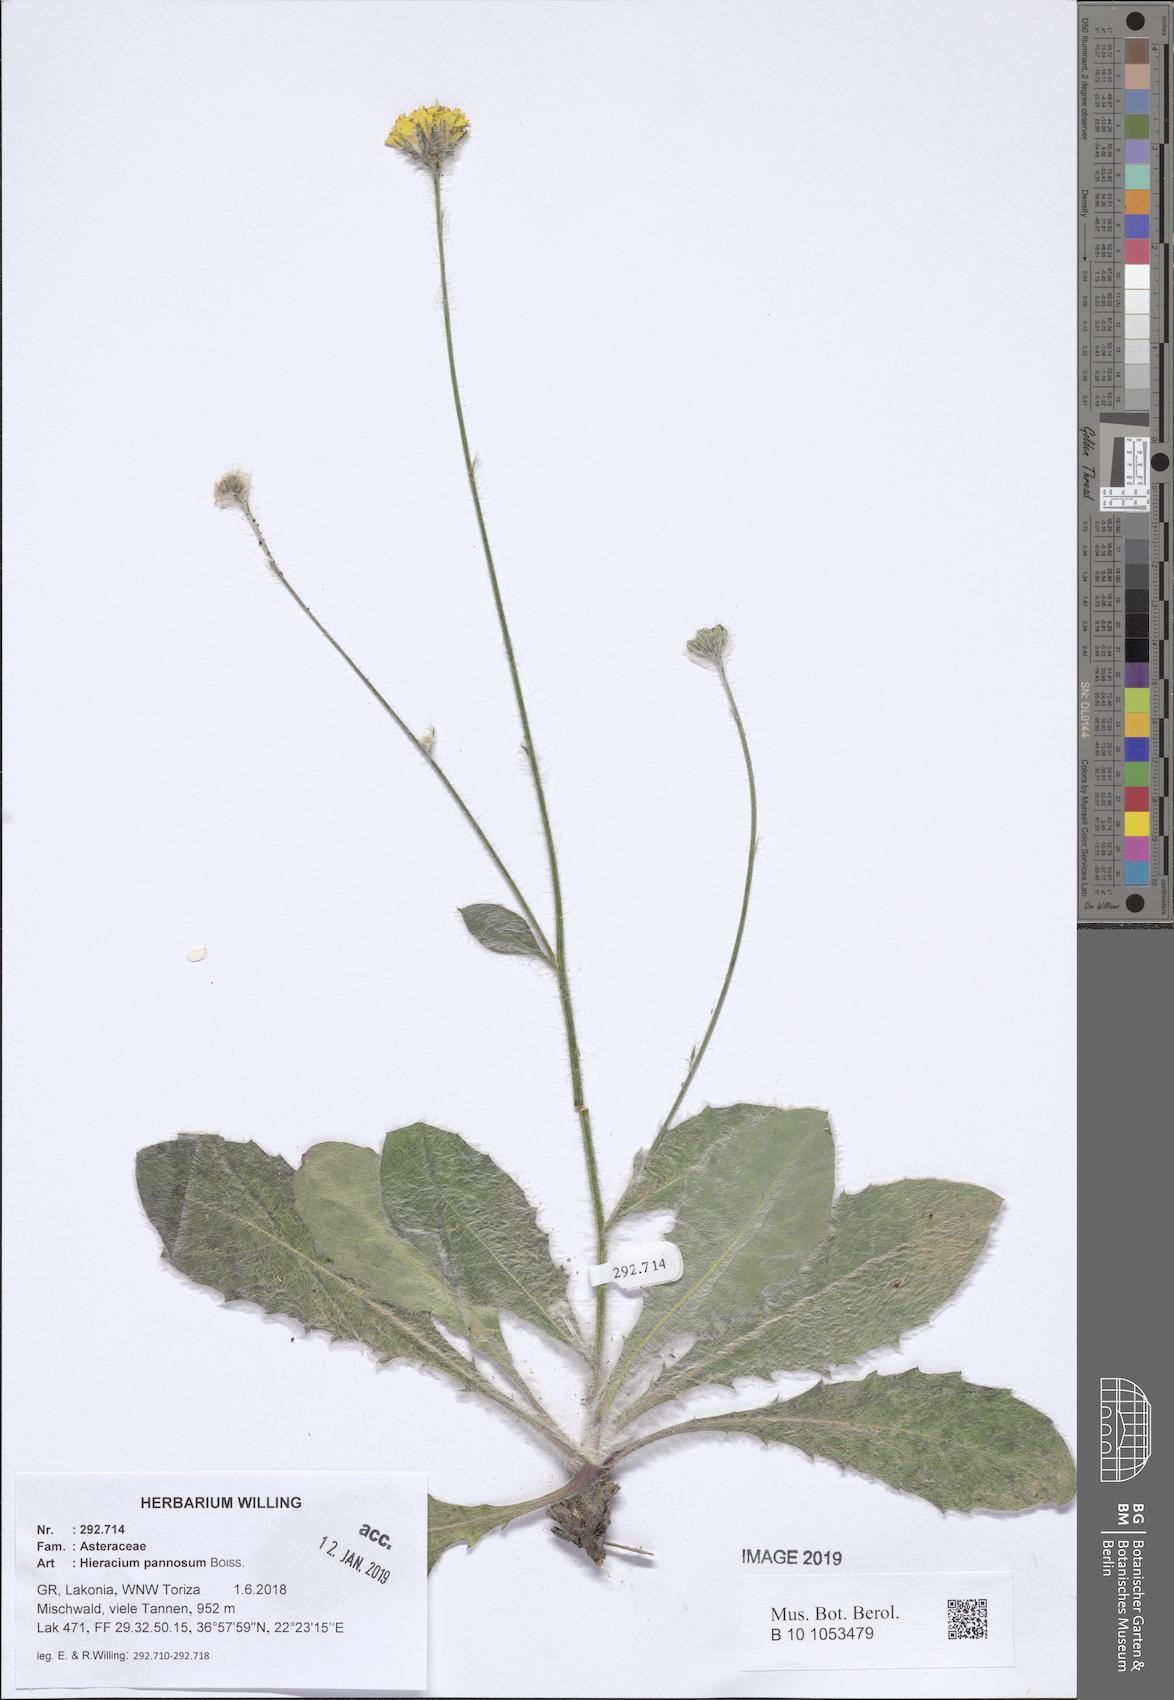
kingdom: Plantae
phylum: Tracheophyta
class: Magnoliopsida
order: Asterales
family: Asteraceae
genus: Hieracium
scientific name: Hieracium pannosum
